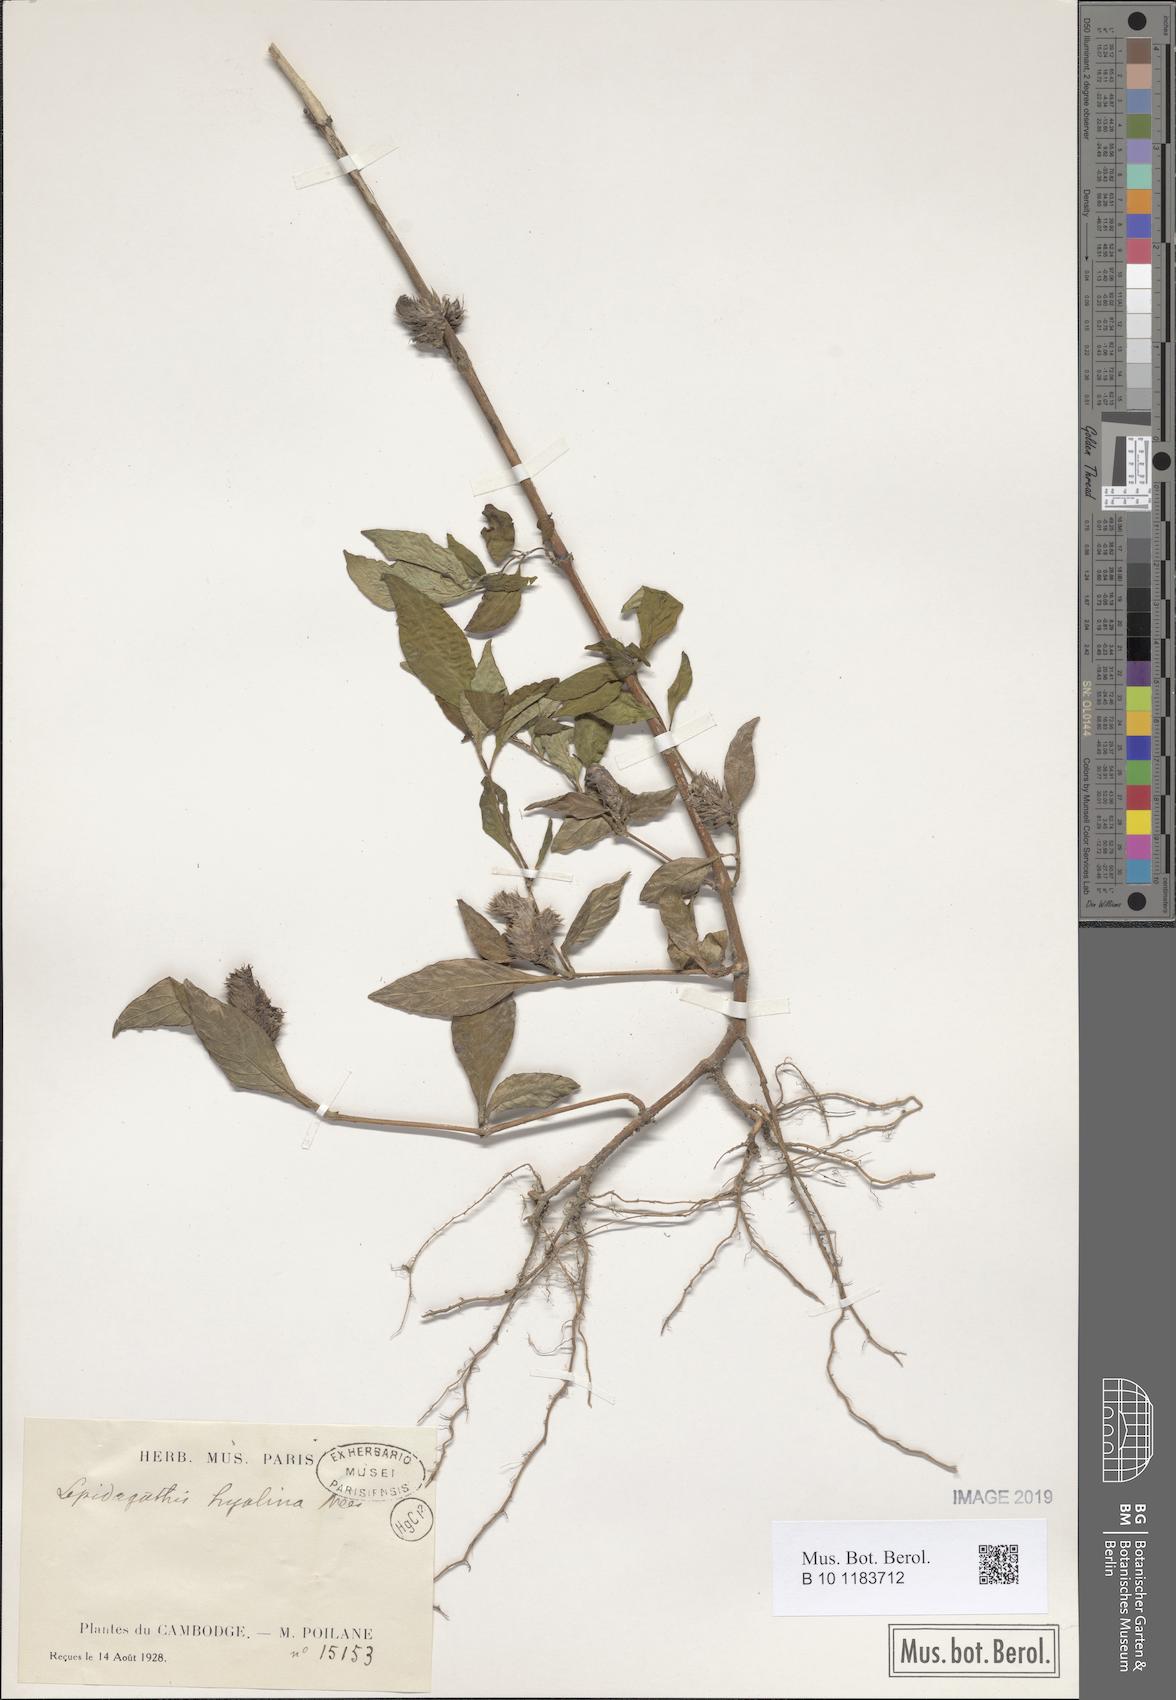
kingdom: Plantae
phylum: Tracheophyta
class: Magnoliopsida
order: Lamiales
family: Acanthaceae
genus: Lepidagathis
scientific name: Lepidagathis incurva
